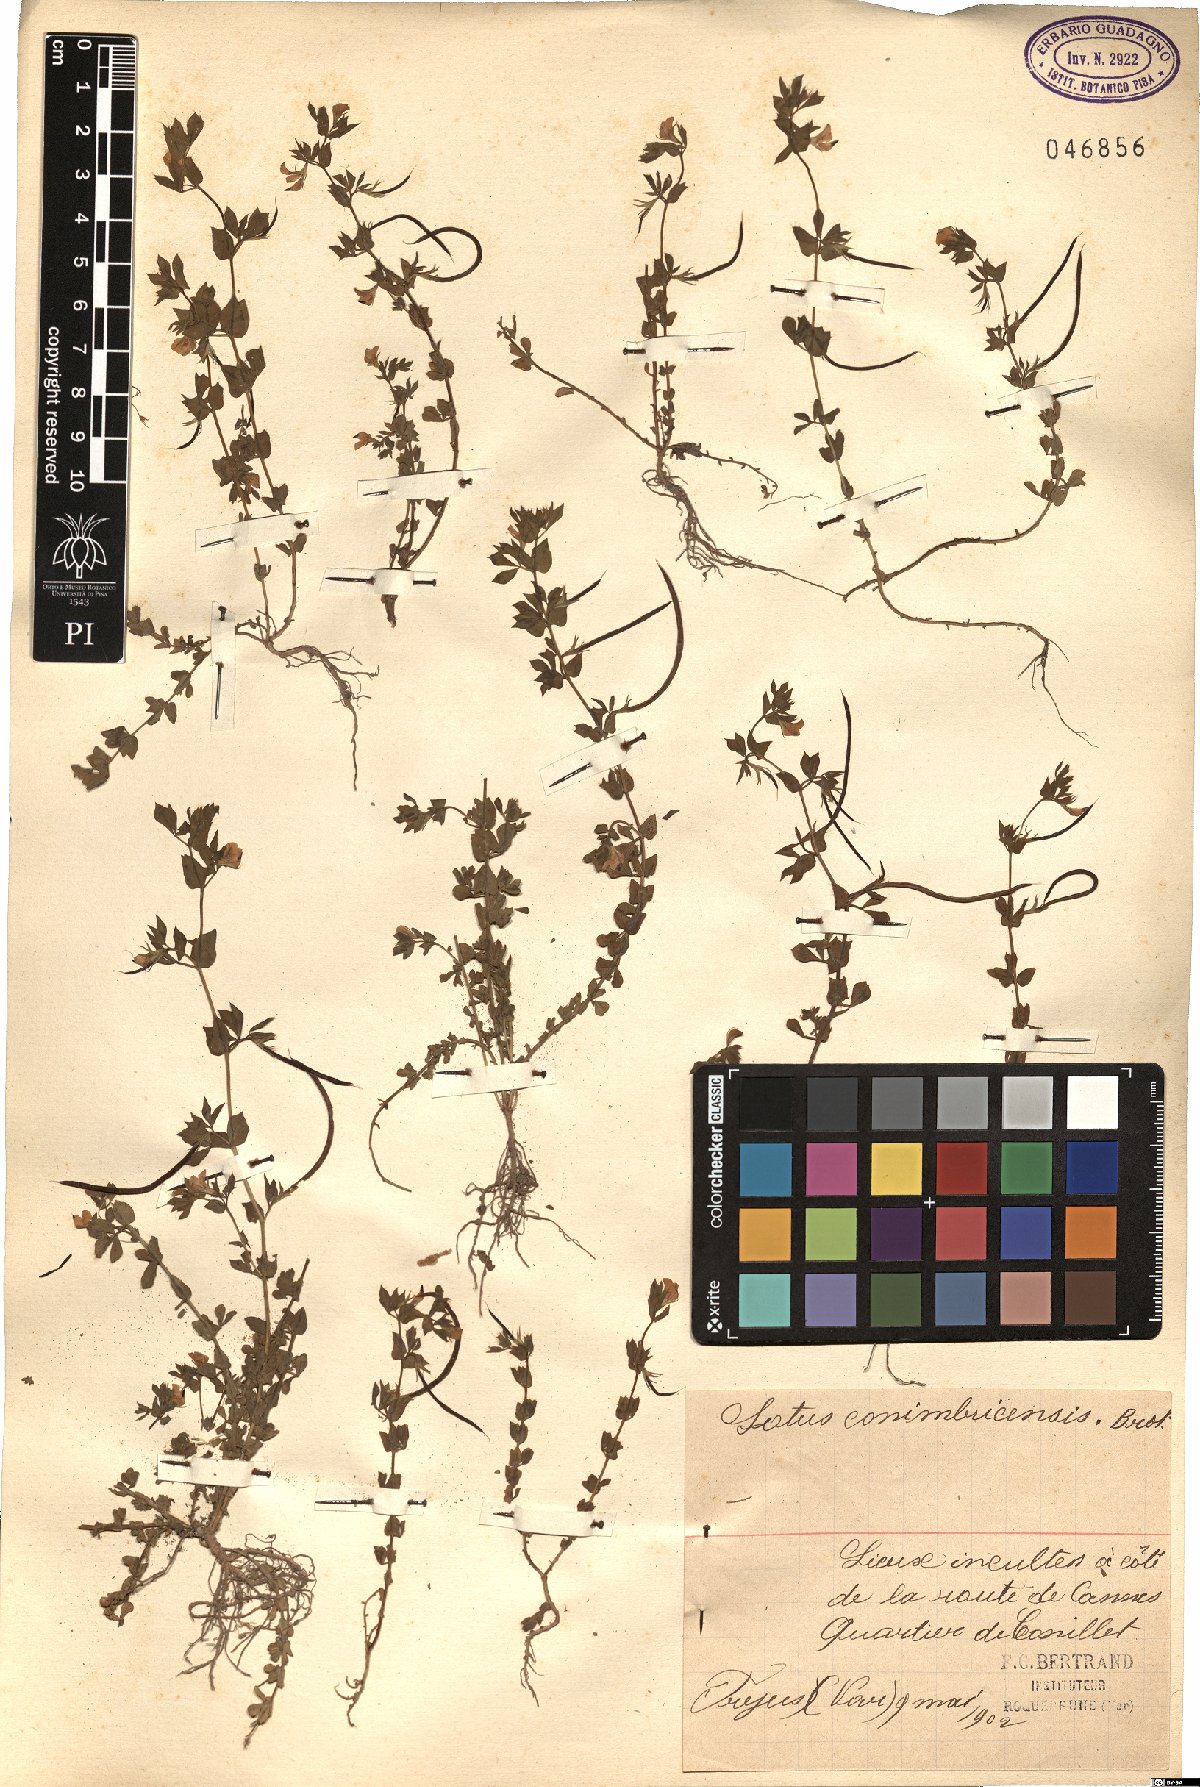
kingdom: Plantae
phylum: Tracheophyta
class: Magnoliopsida
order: Fabales
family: Fabaceae
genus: Lotus
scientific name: Lotus conimbricensis
